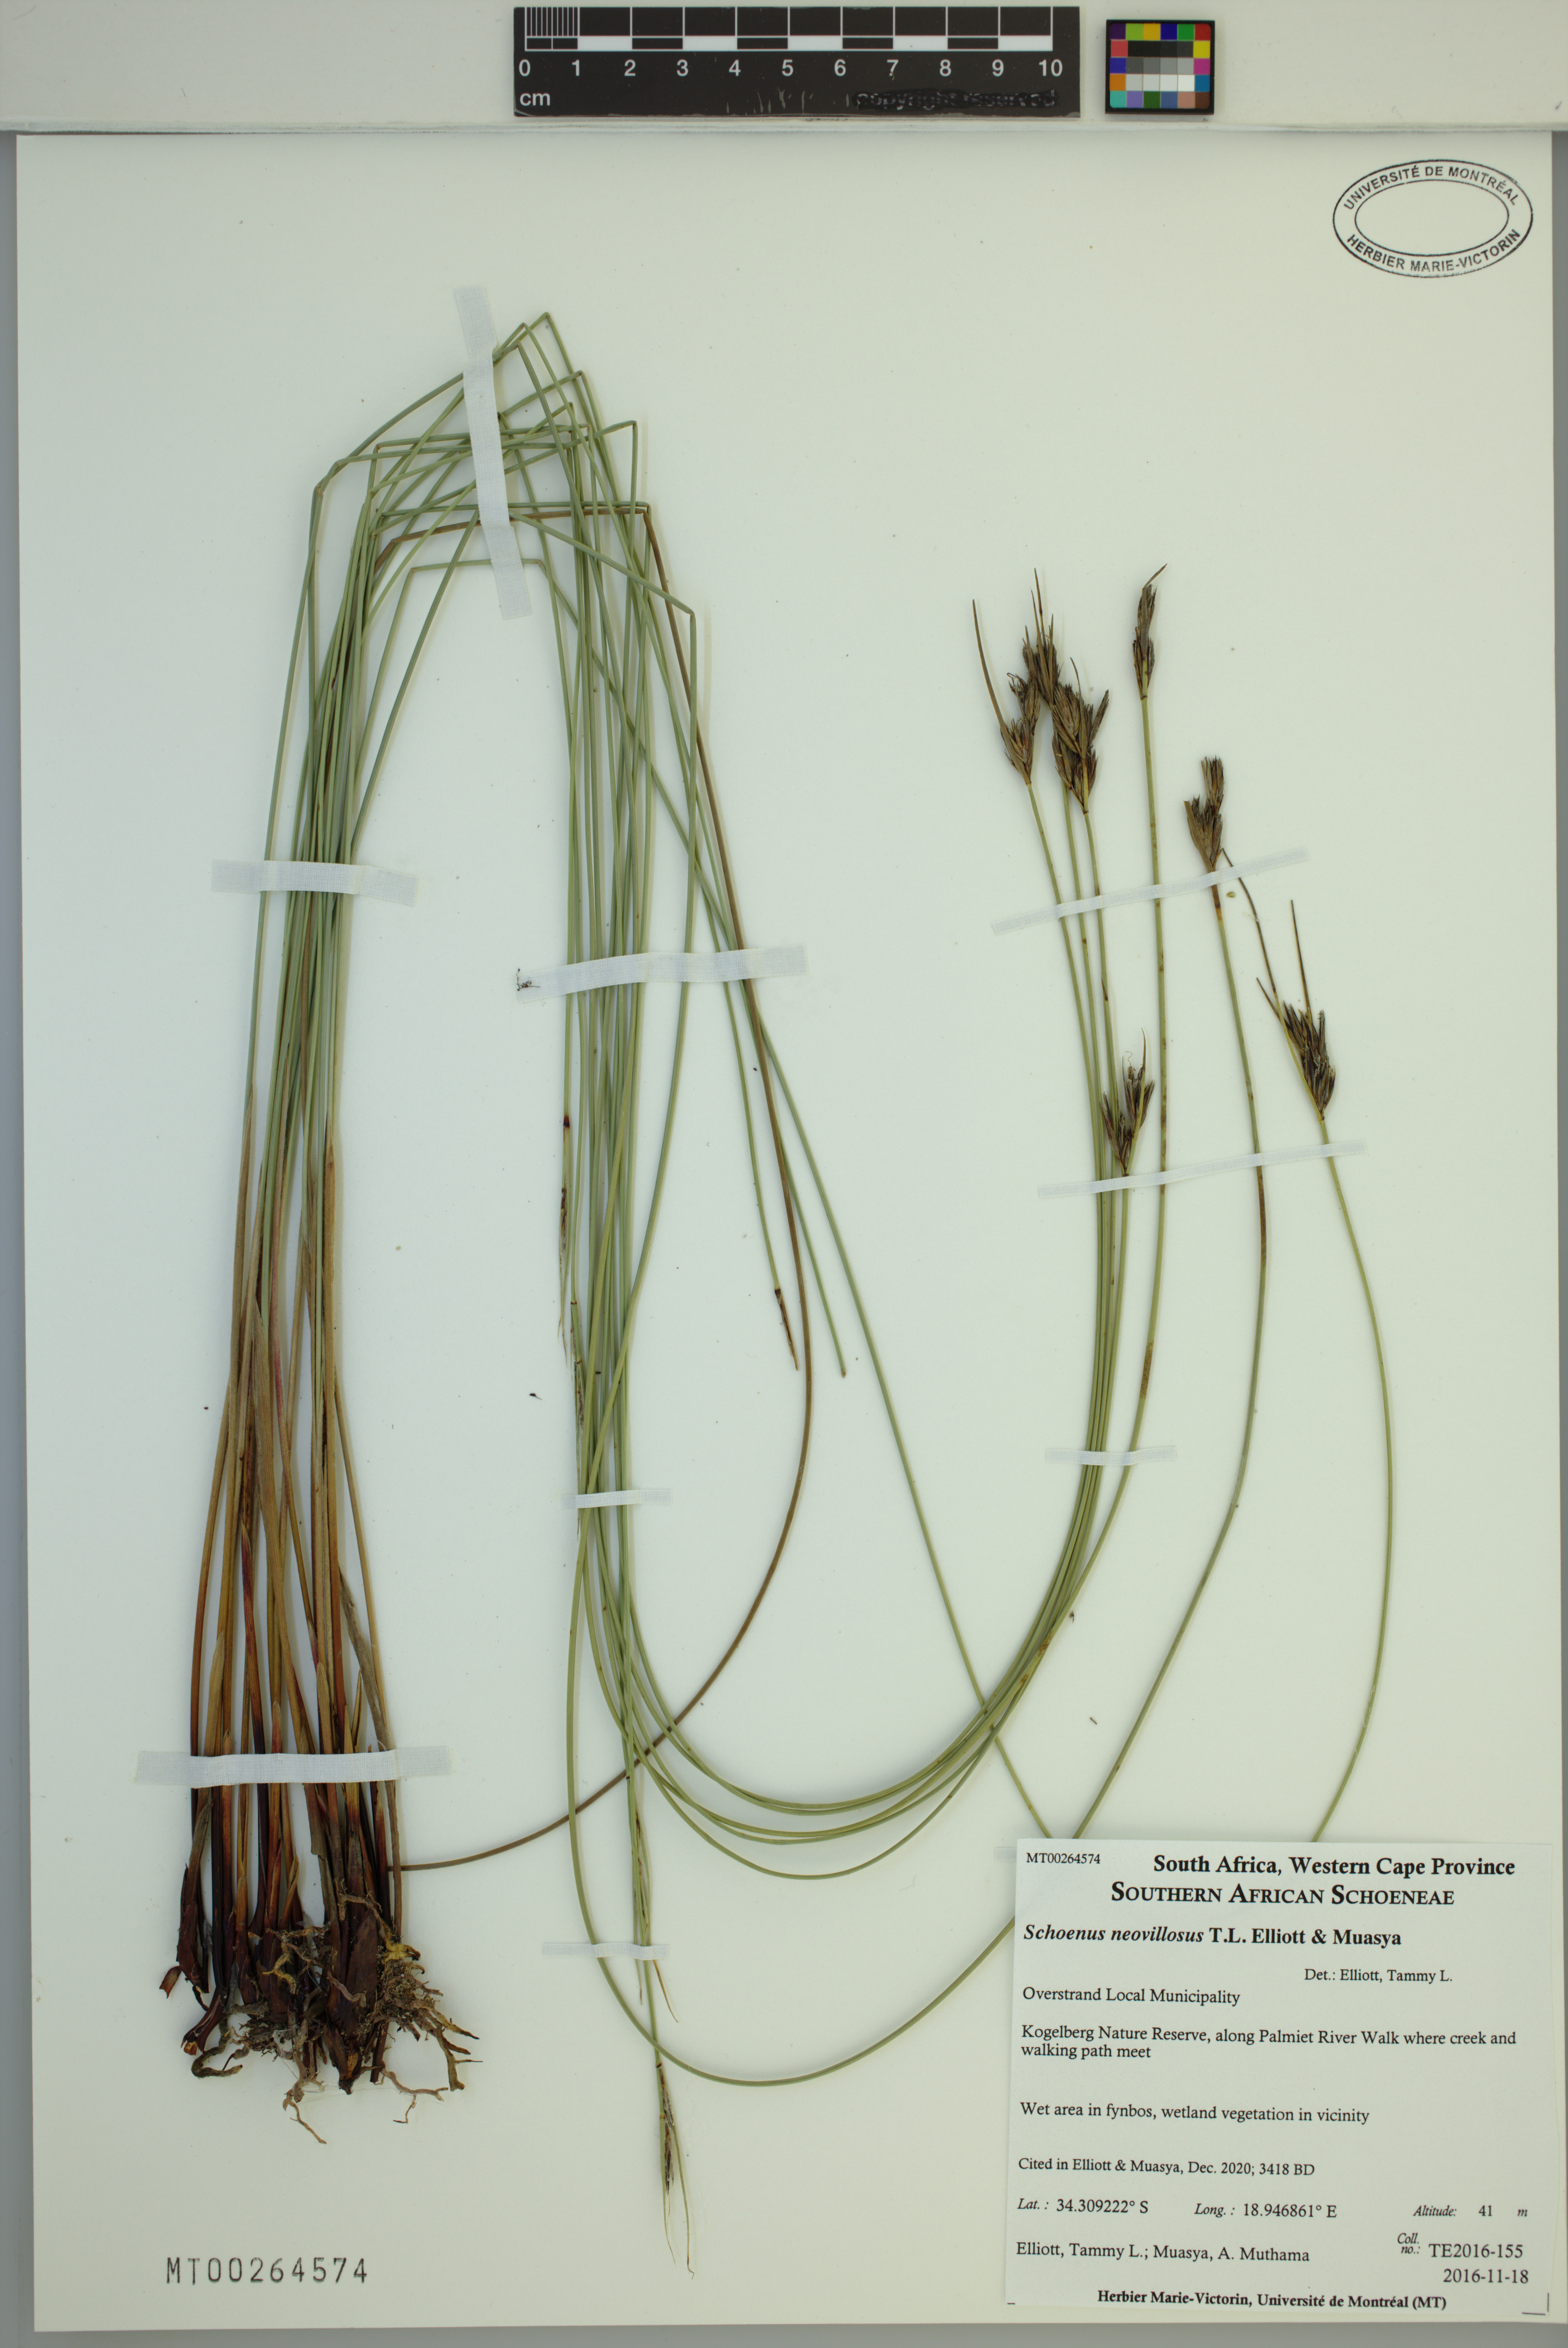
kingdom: Plantae
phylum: Tracheophyta
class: Liliopsida
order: Poales
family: Cyperaceae
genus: Schoenus
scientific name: Schoenus neovillosus
